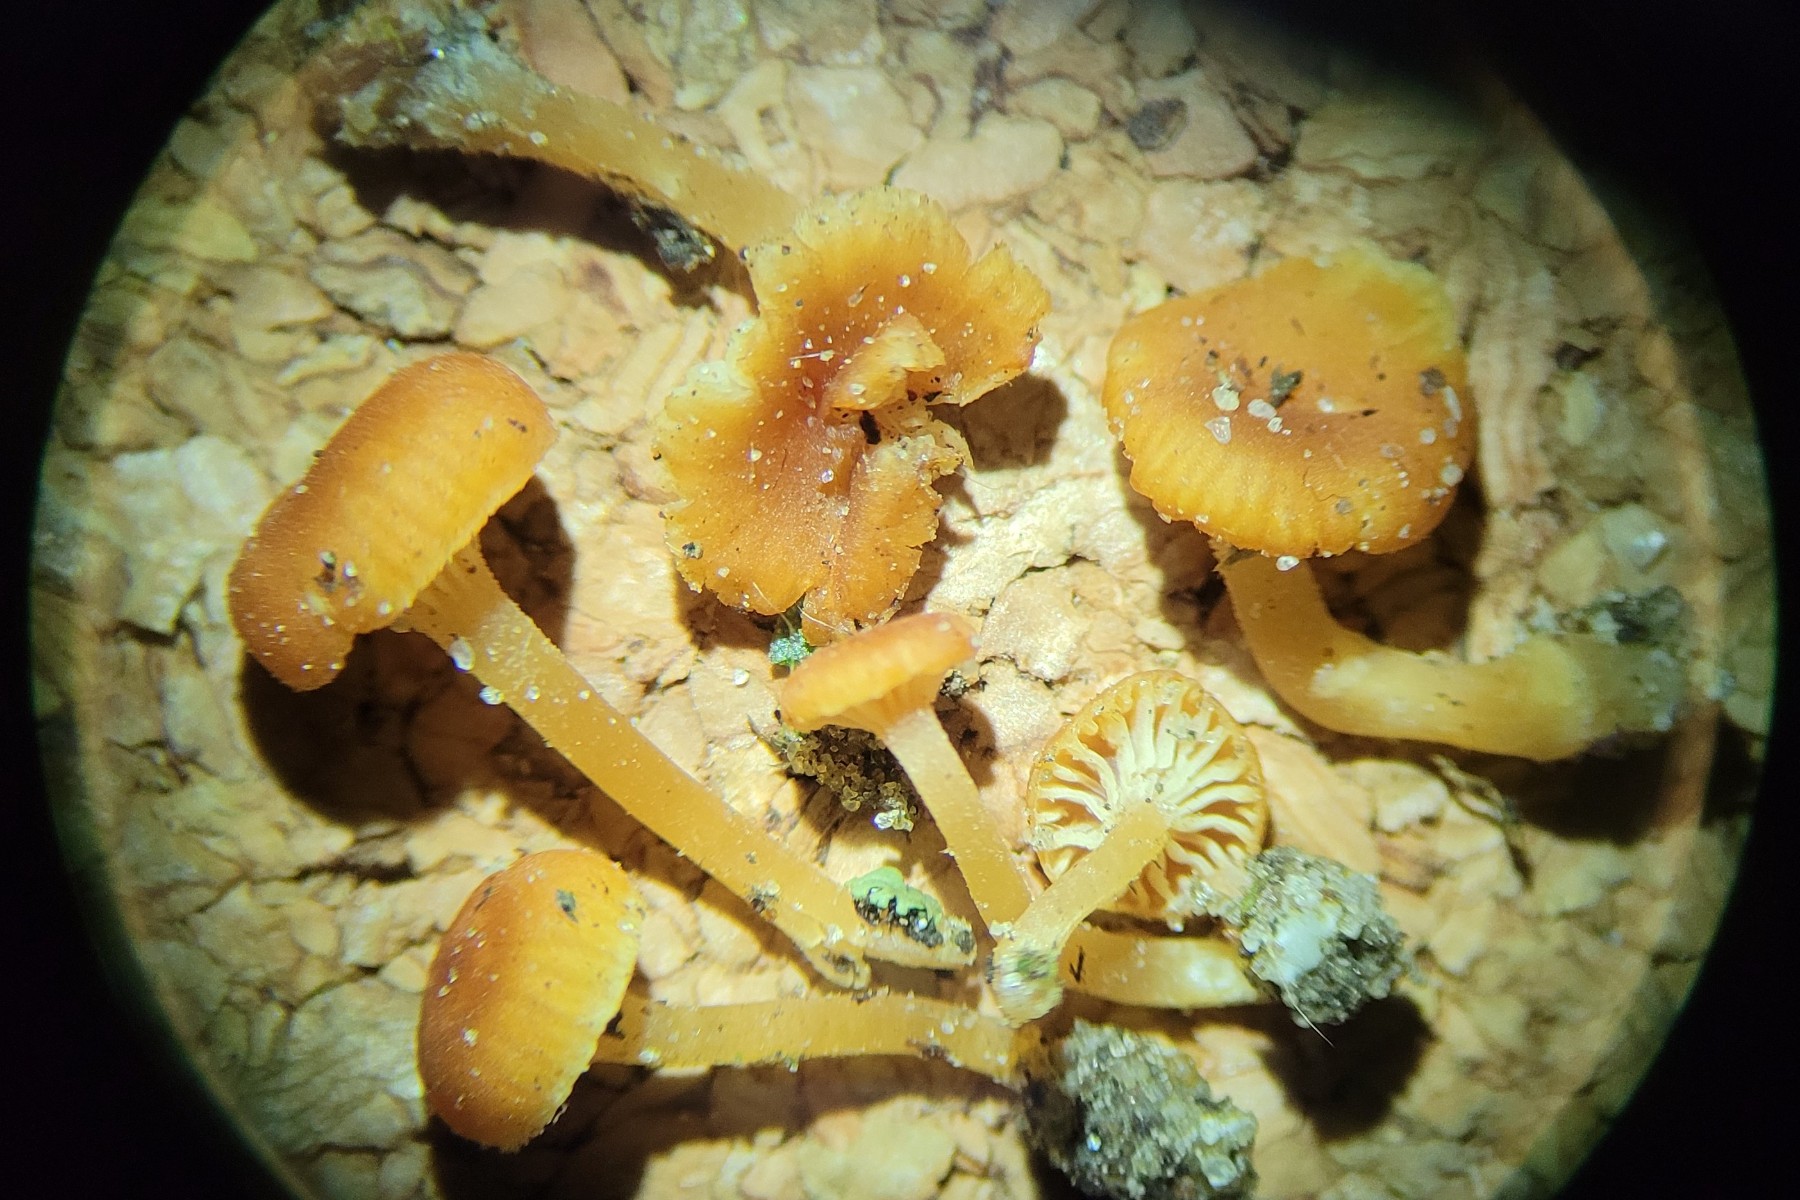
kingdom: Fungi
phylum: Basidiomycota
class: Agaricomycetes
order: Hymenochaetales
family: Rickenellaceae
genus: Loreleia
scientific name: Loreleia postii
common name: brandplet-mosnavlehat
